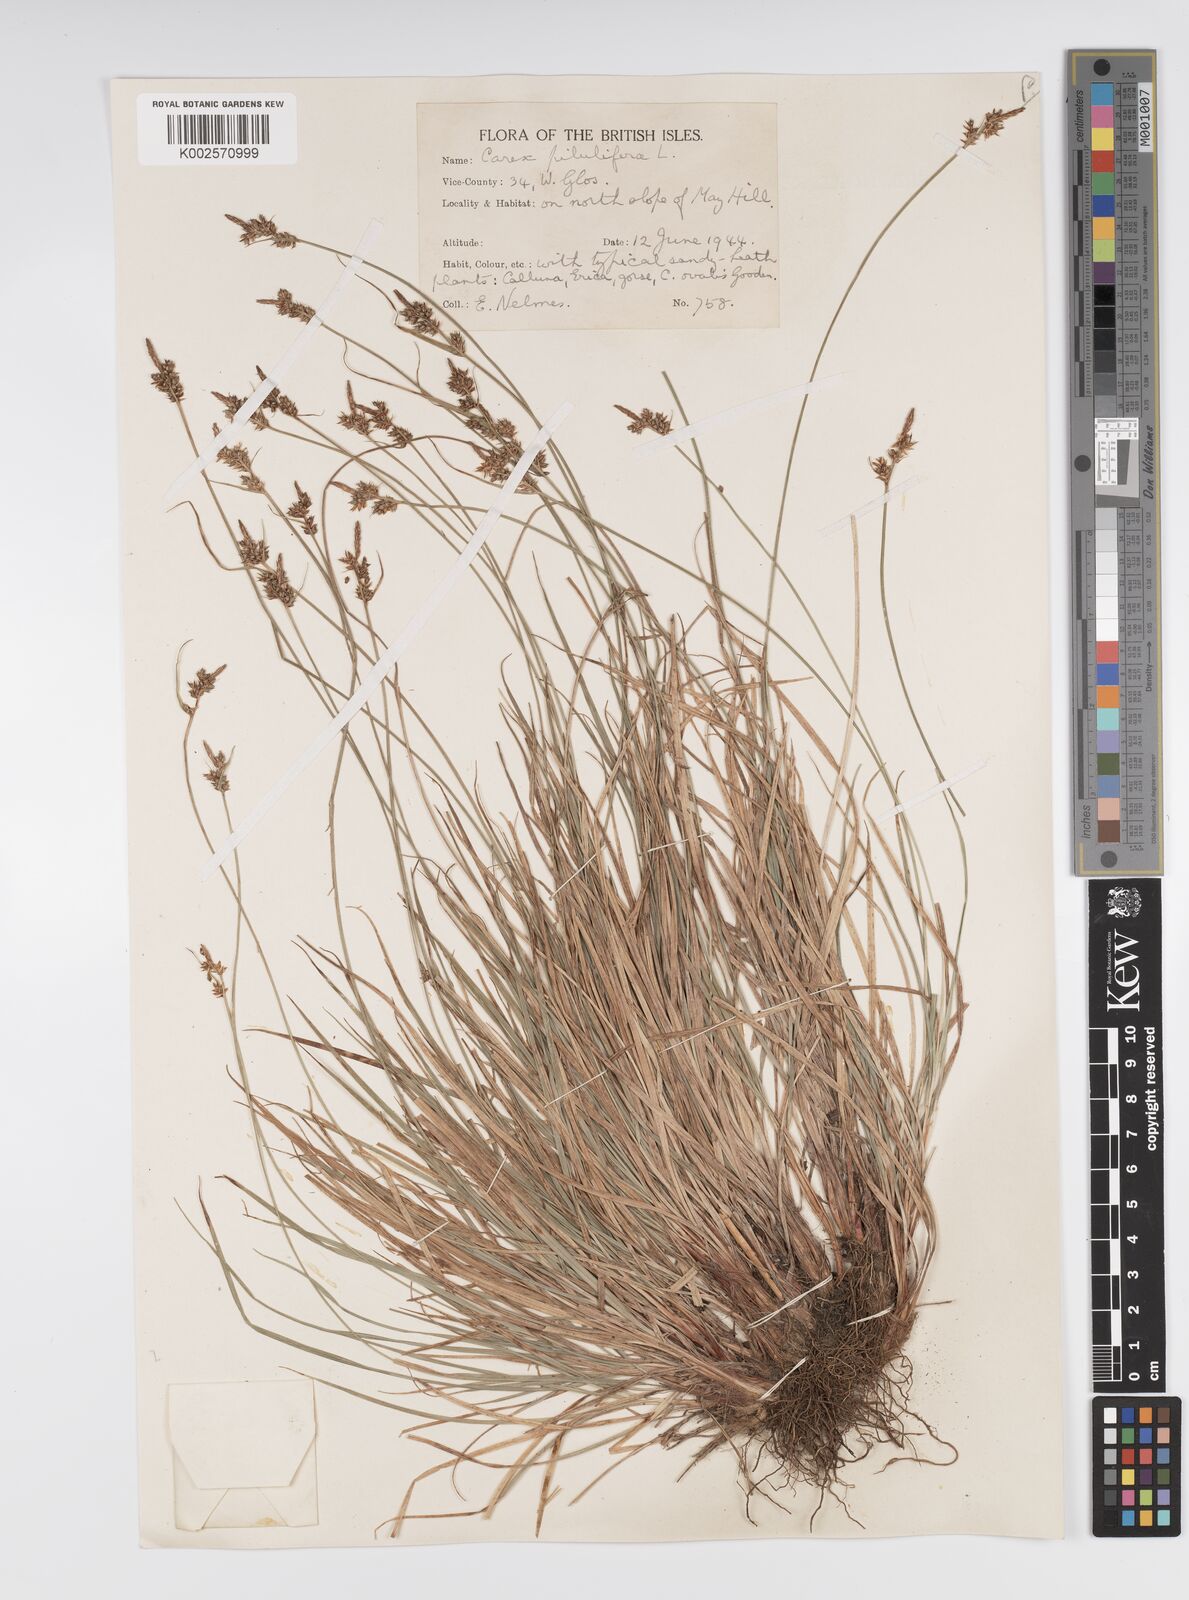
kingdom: Plantae
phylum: Tracheophyta
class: Liliopsida
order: Poales
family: Cyperaceae
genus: Carex
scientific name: Carex praecox
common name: Early sedge
